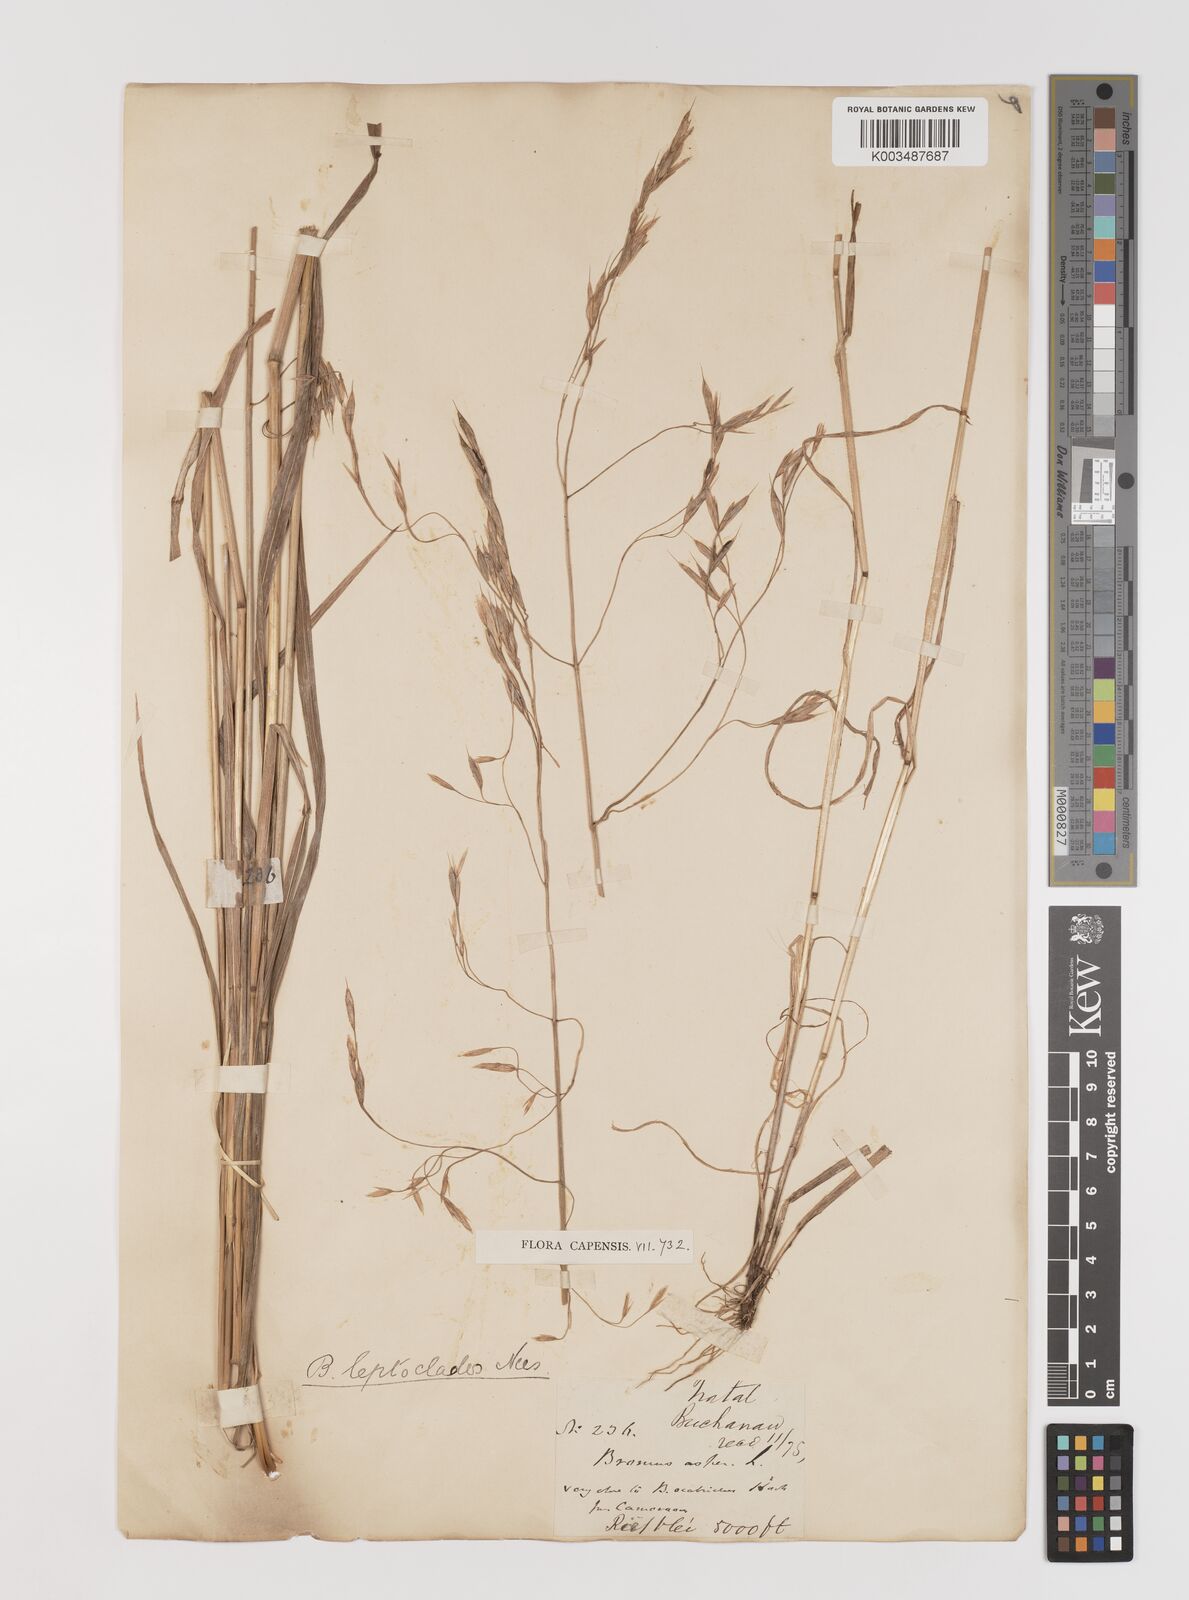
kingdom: Plantae
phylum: Tracheophyta
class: Liliopsida
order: Poales
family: Poaceae
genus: Bromus
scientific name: Bromus leptoclados
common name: Mountain bromegrass
